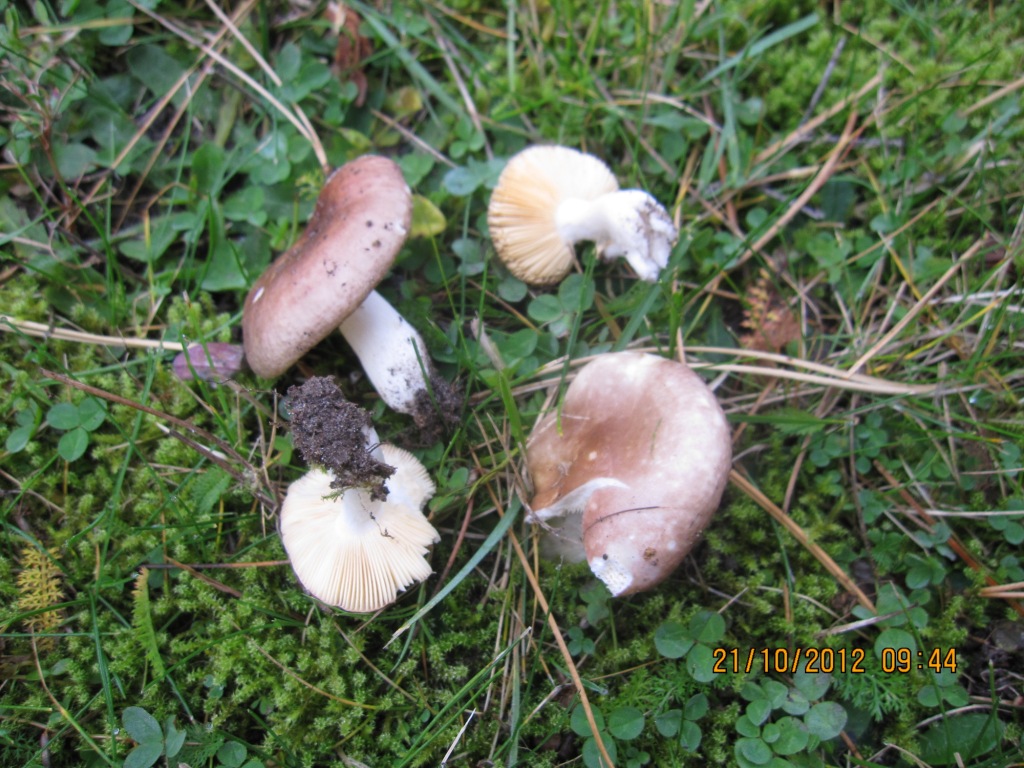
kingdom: Fungi
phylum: Basidiomycota
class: Agaricomycetes
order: Russulales
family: Russulaceae
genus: Russula
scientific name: Russula cessans
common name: fyrre-skørhat
